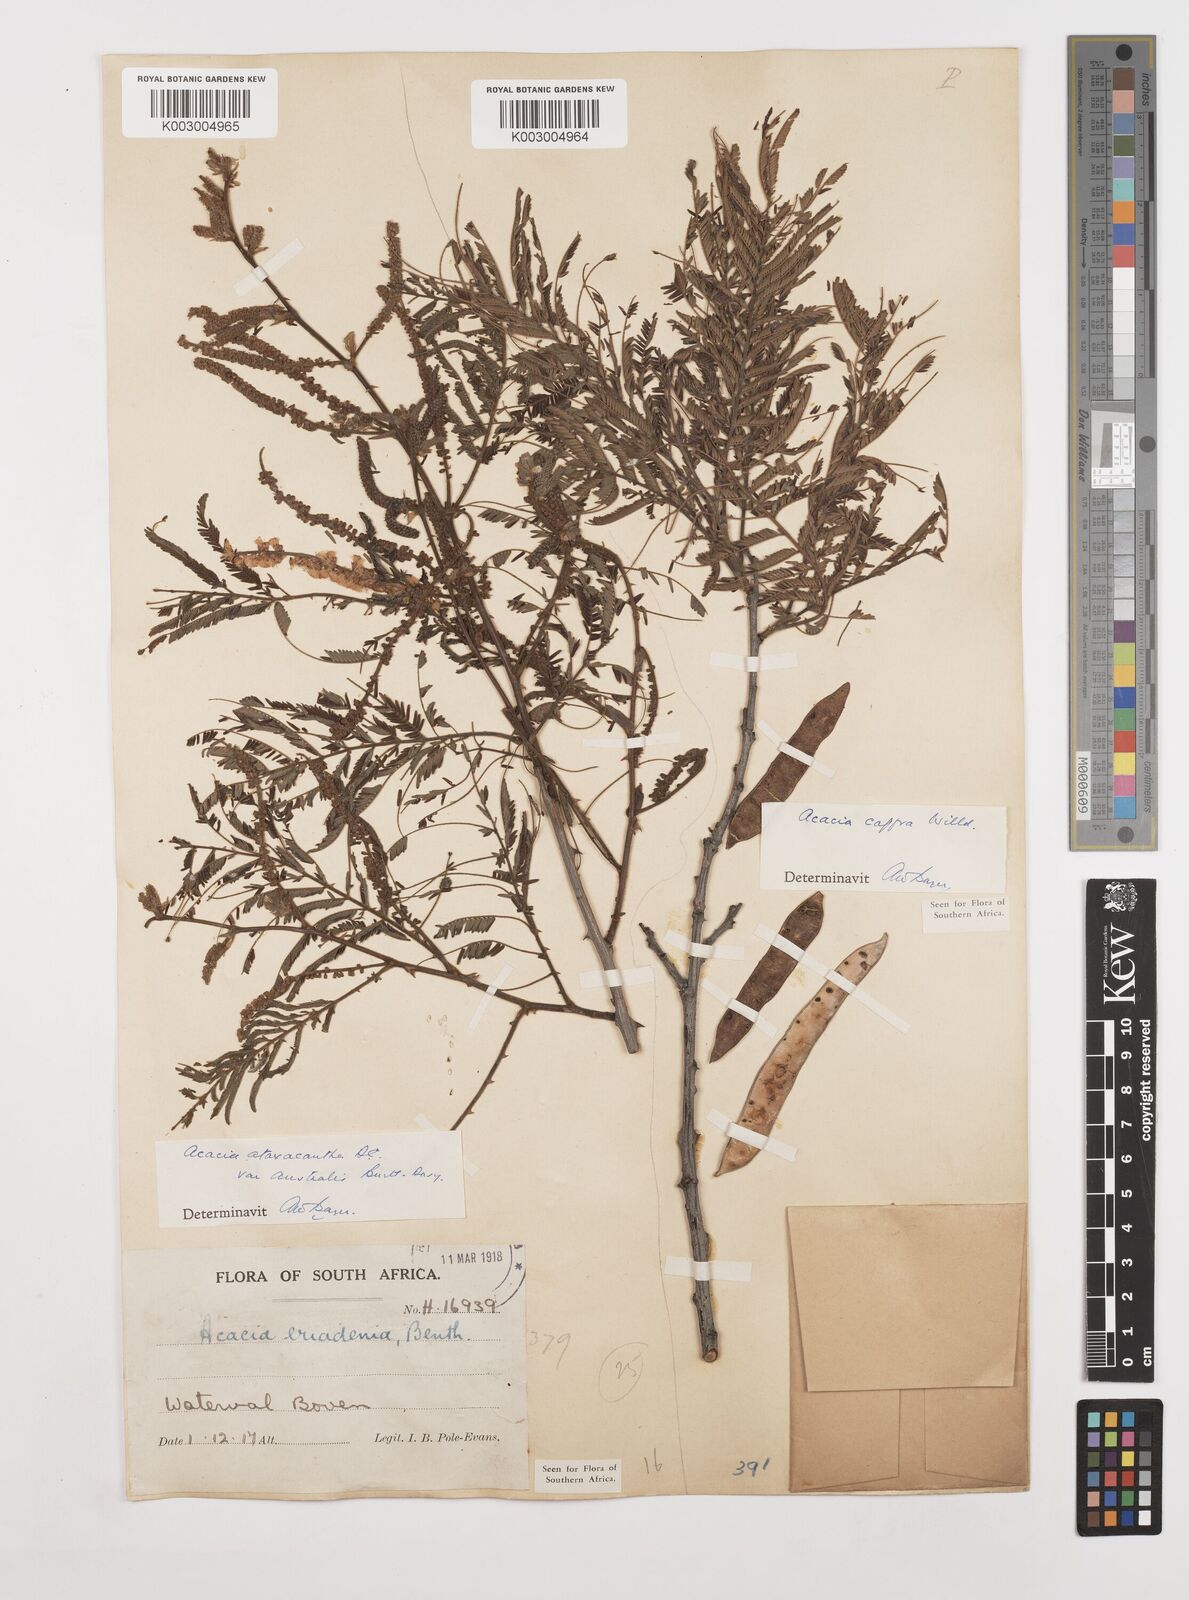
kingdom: Plantae
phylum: Tracheophyta
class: Magnoliopsida
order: Fabales
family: Fabaceae
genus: Senegalia
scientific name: Senegalia ataxacantha
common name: Flame acacia
